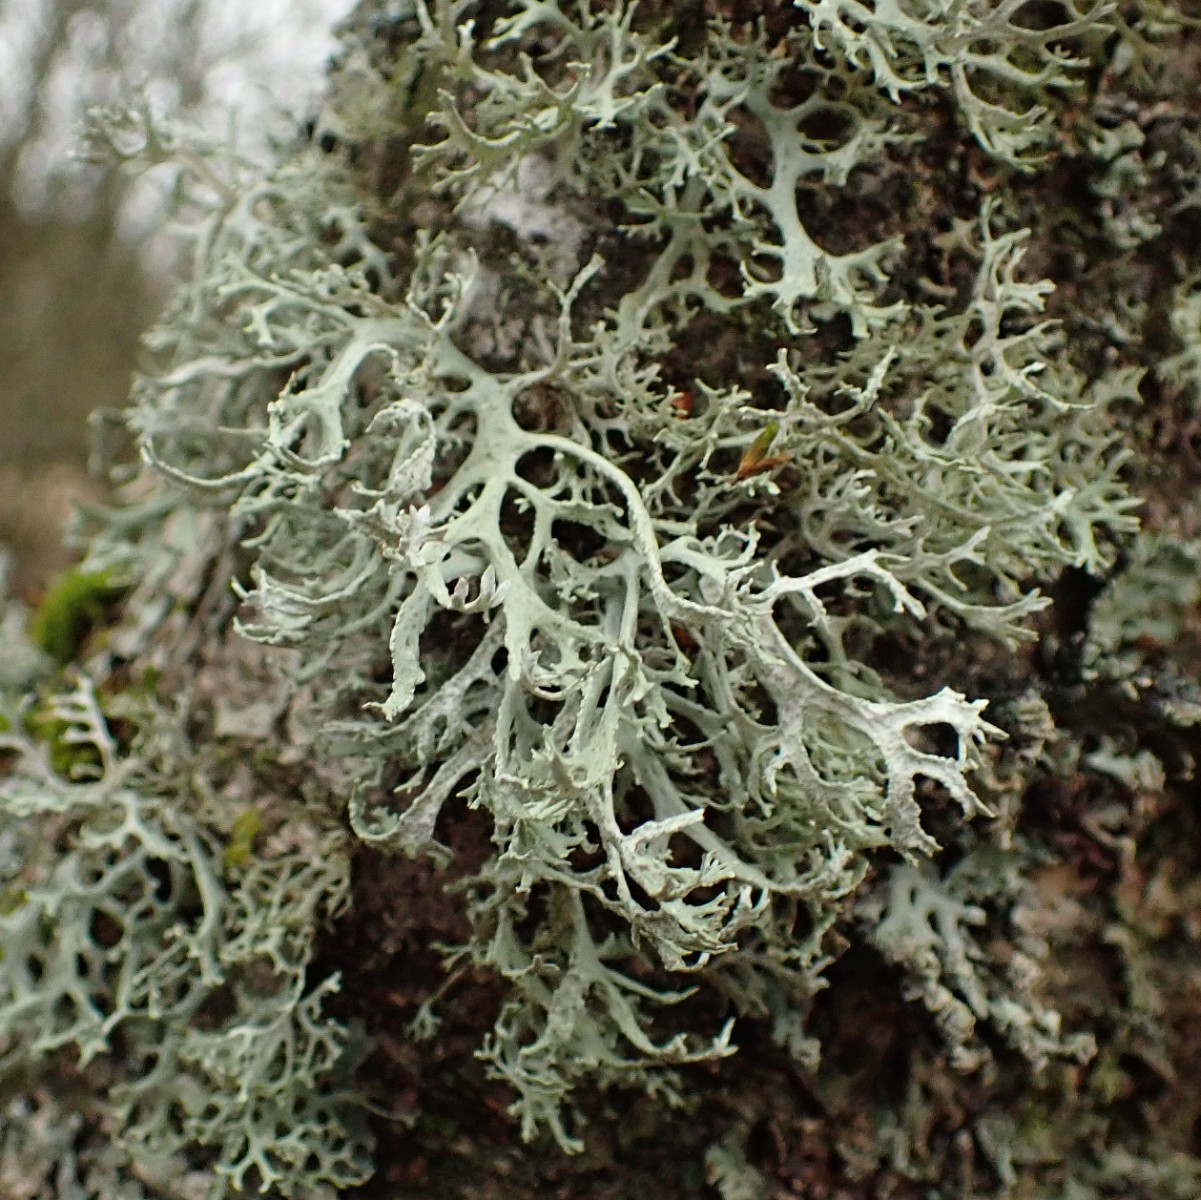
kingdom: Fungi
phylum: Ascomycota
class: Lecanoromycetes
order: Lecanorales
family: Parmeliaceae
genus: Evernia
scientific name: Evernia prunastri
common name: almindelig slåenlav
